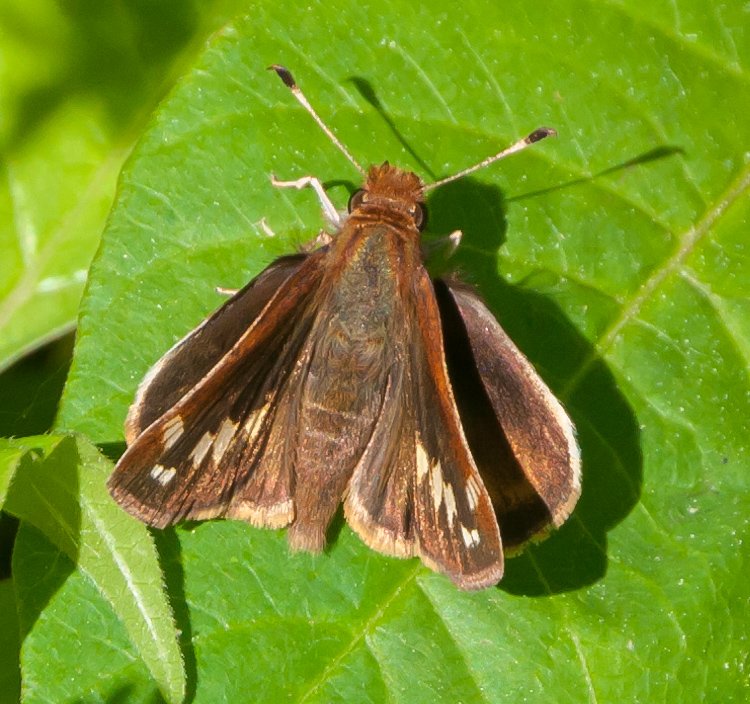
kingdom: Animalia
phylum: Arthropoda
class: Insecta
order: Lepidoptera
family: Hesperiidae
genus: Lon
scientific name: Lon zabulon
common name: Zabulon Skipper
